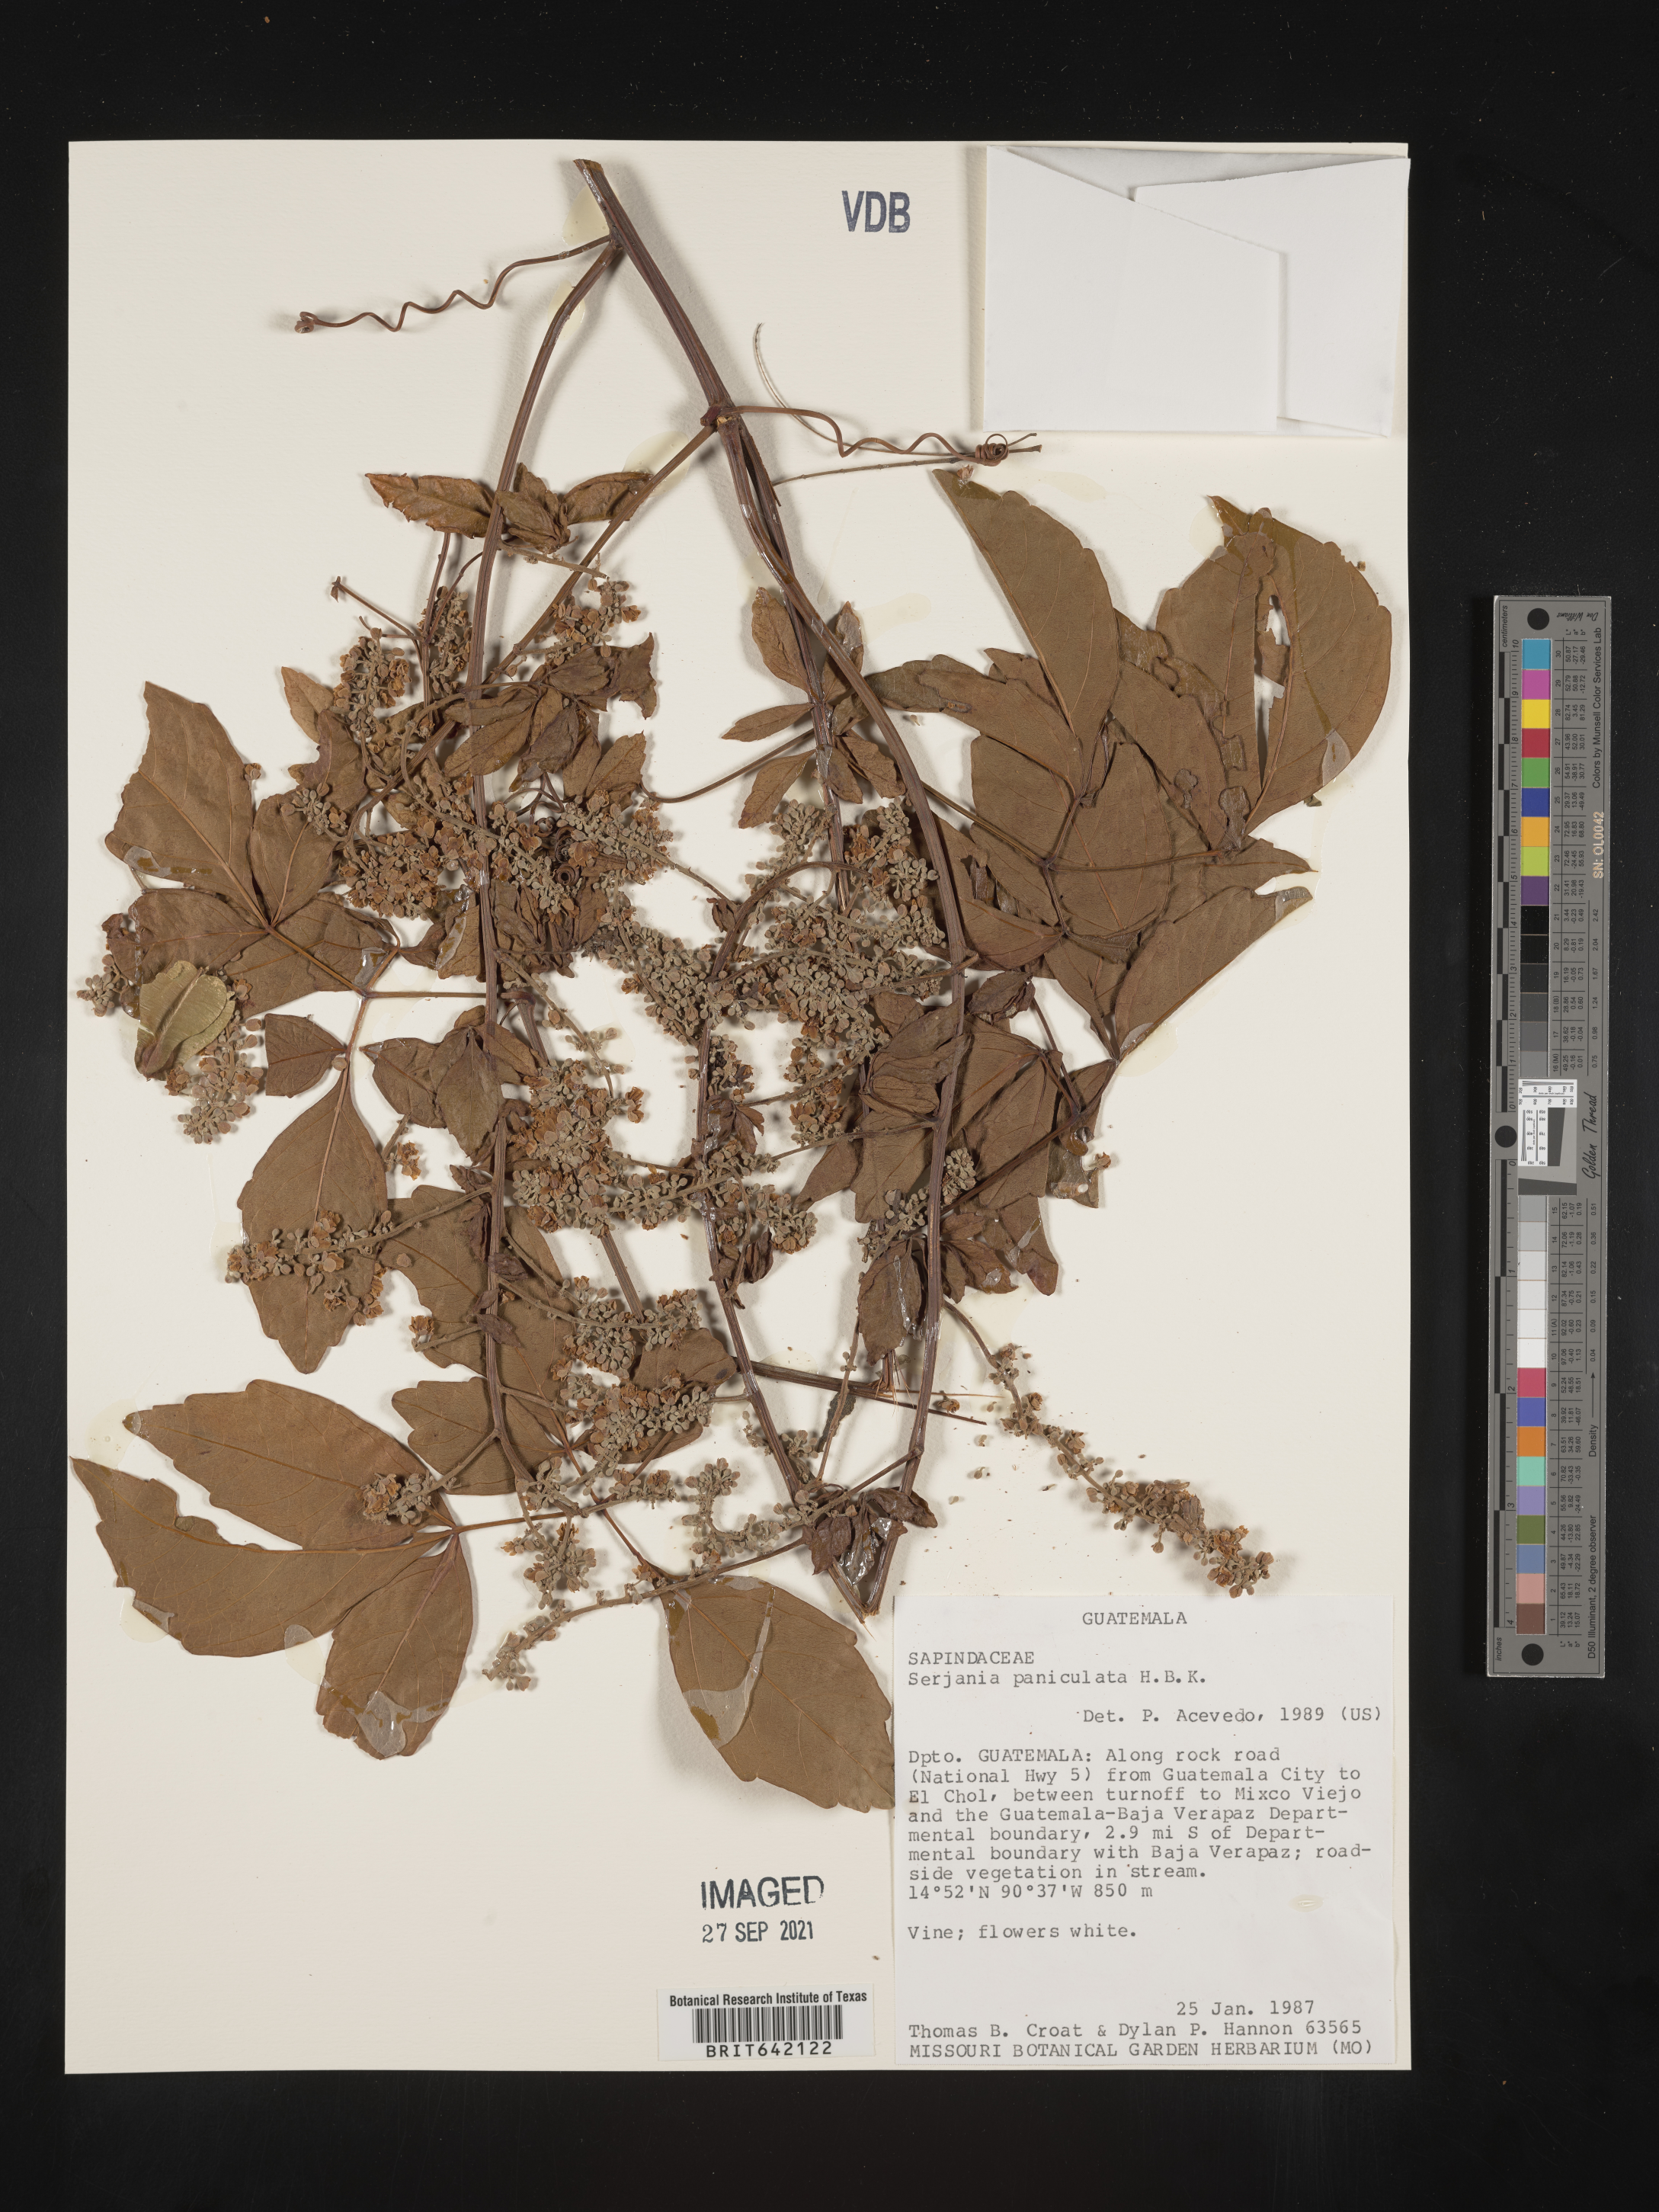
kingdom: Plantae
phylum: Tracheophyta
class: Magnoliopsida
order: Sapindales
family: Sapindaceae
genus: Serjania
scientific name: Serjania
